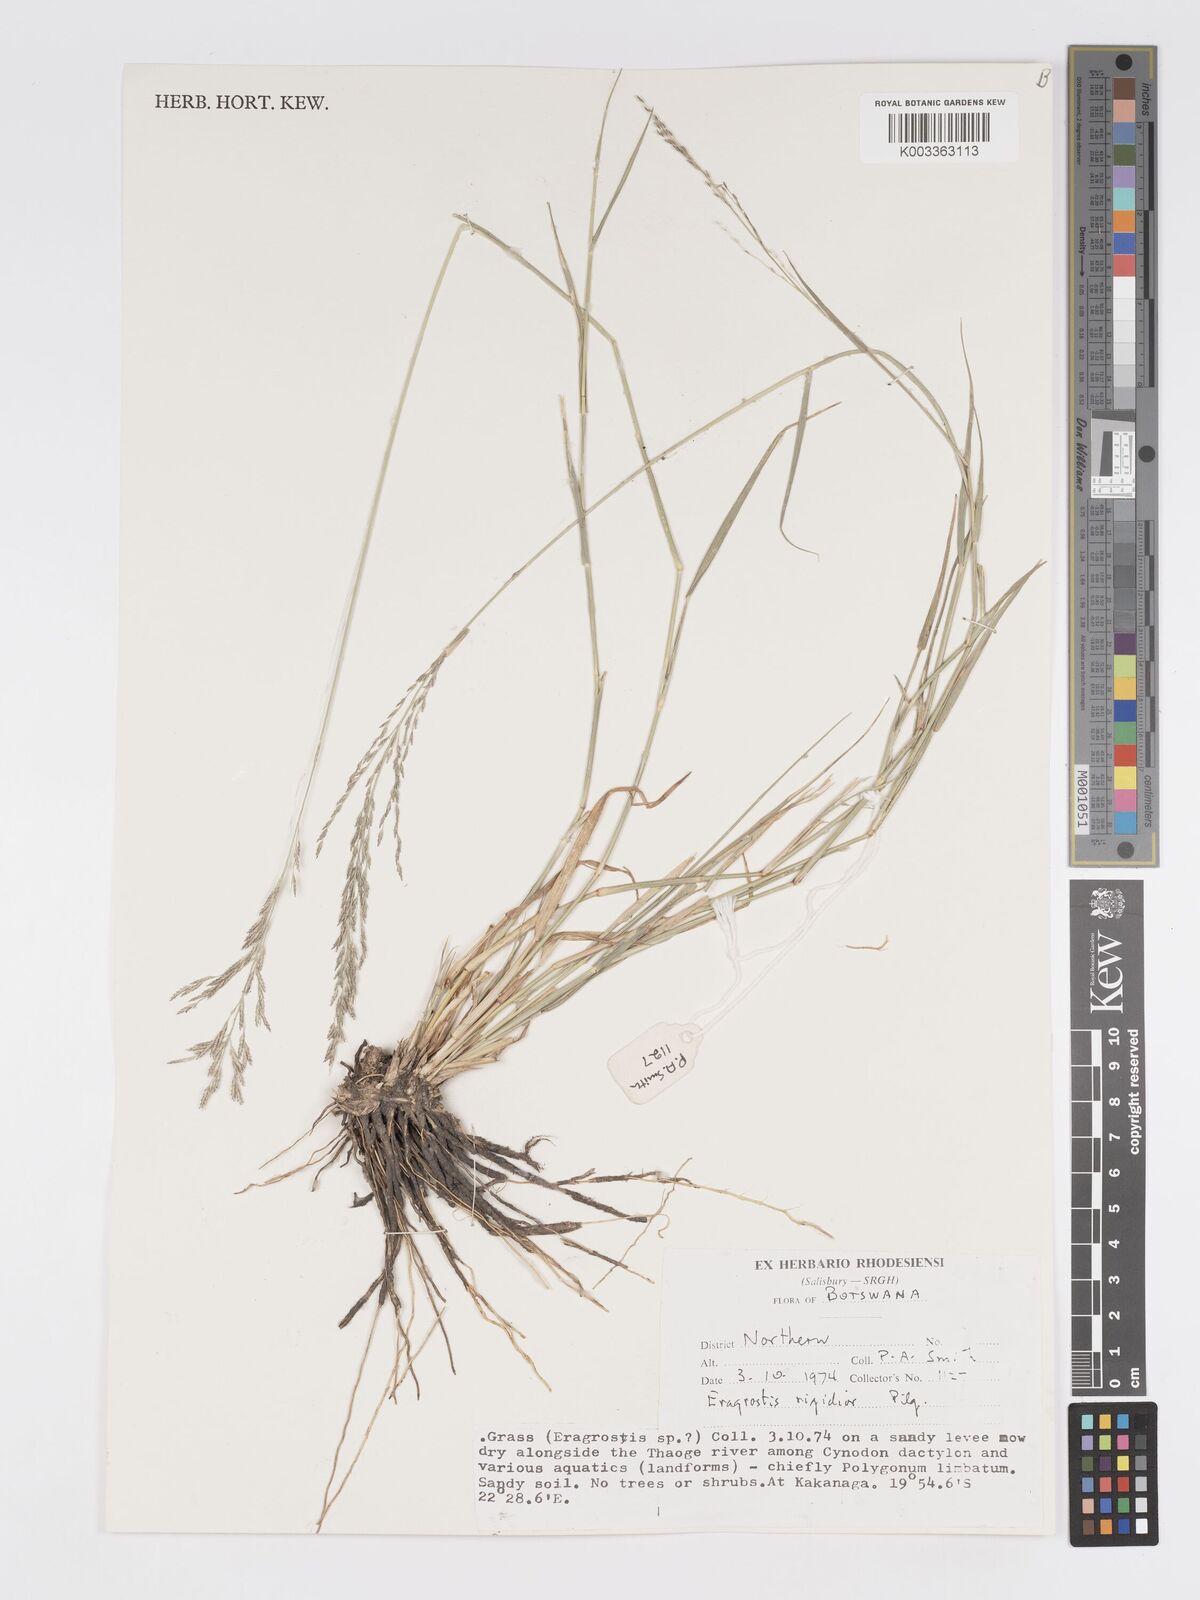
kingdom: Plantae
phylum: Tracheophyta
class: Liliopsida
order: Poales
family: Poaceae
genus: Eragrostis
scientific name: Eragrostis cylindriflora
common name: Cylinderflower lovegrass
